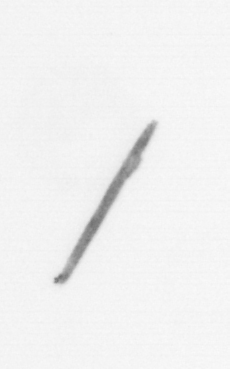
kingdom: Chromista
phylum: Ochrophyta
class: Bacillariophyceae
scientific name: Bacillariophyceae
